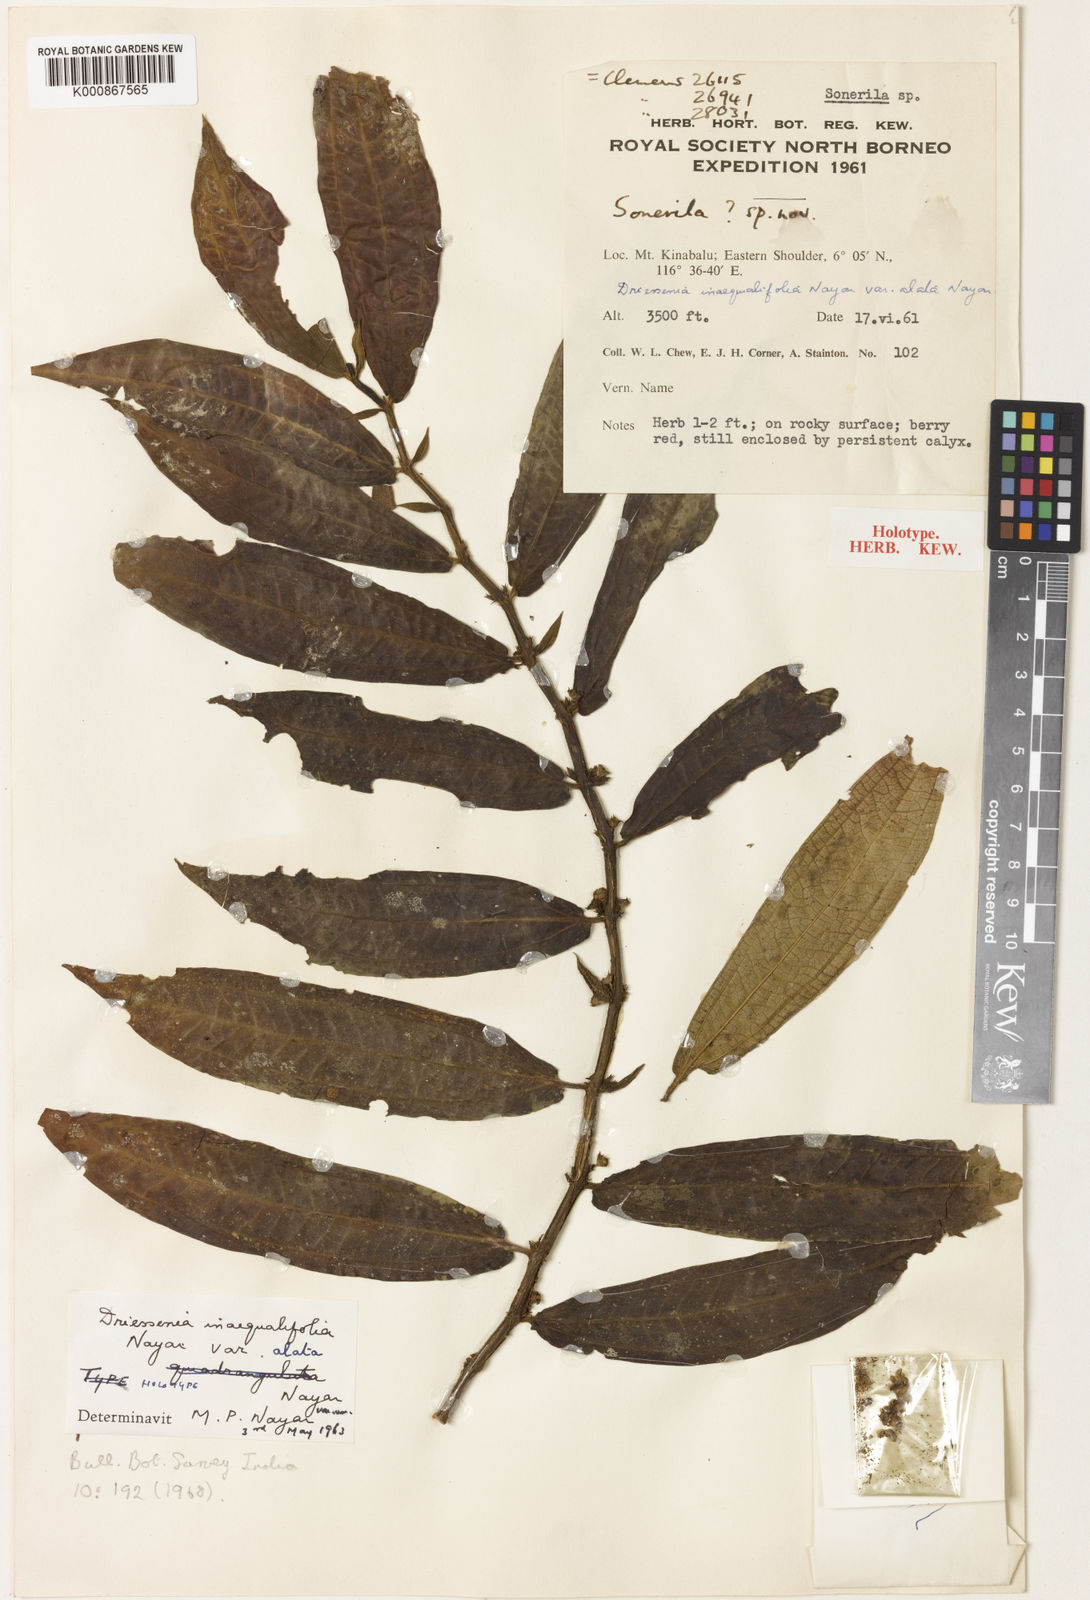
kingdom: Plantae
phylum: Tracheophyta
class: Magnoliopsida
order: Myrtales
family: Melastomataceae
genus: Driessenia
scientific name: Driessenia inaequalifolia
